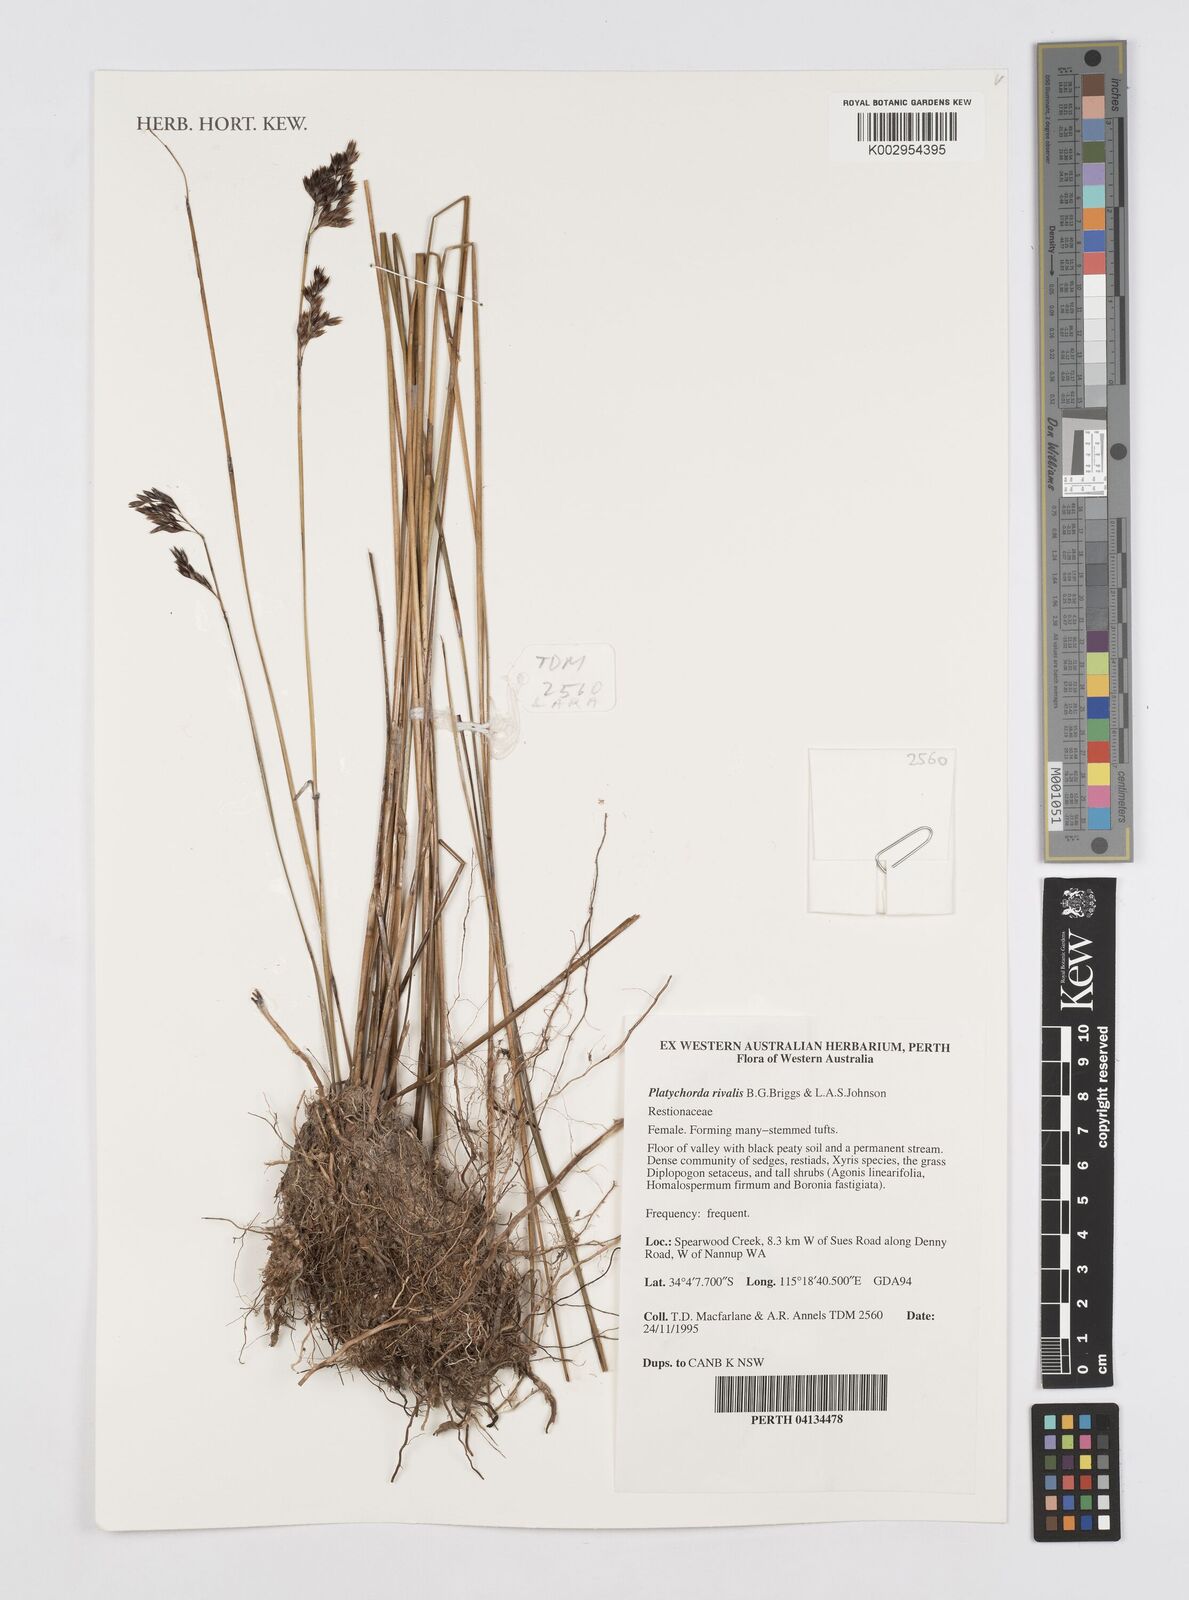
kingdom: Plantae
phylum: Tracheophyta
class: Liliopsida
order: Poales
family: Restionaceae
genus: Platychorda
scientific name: Platychorda rivalis
